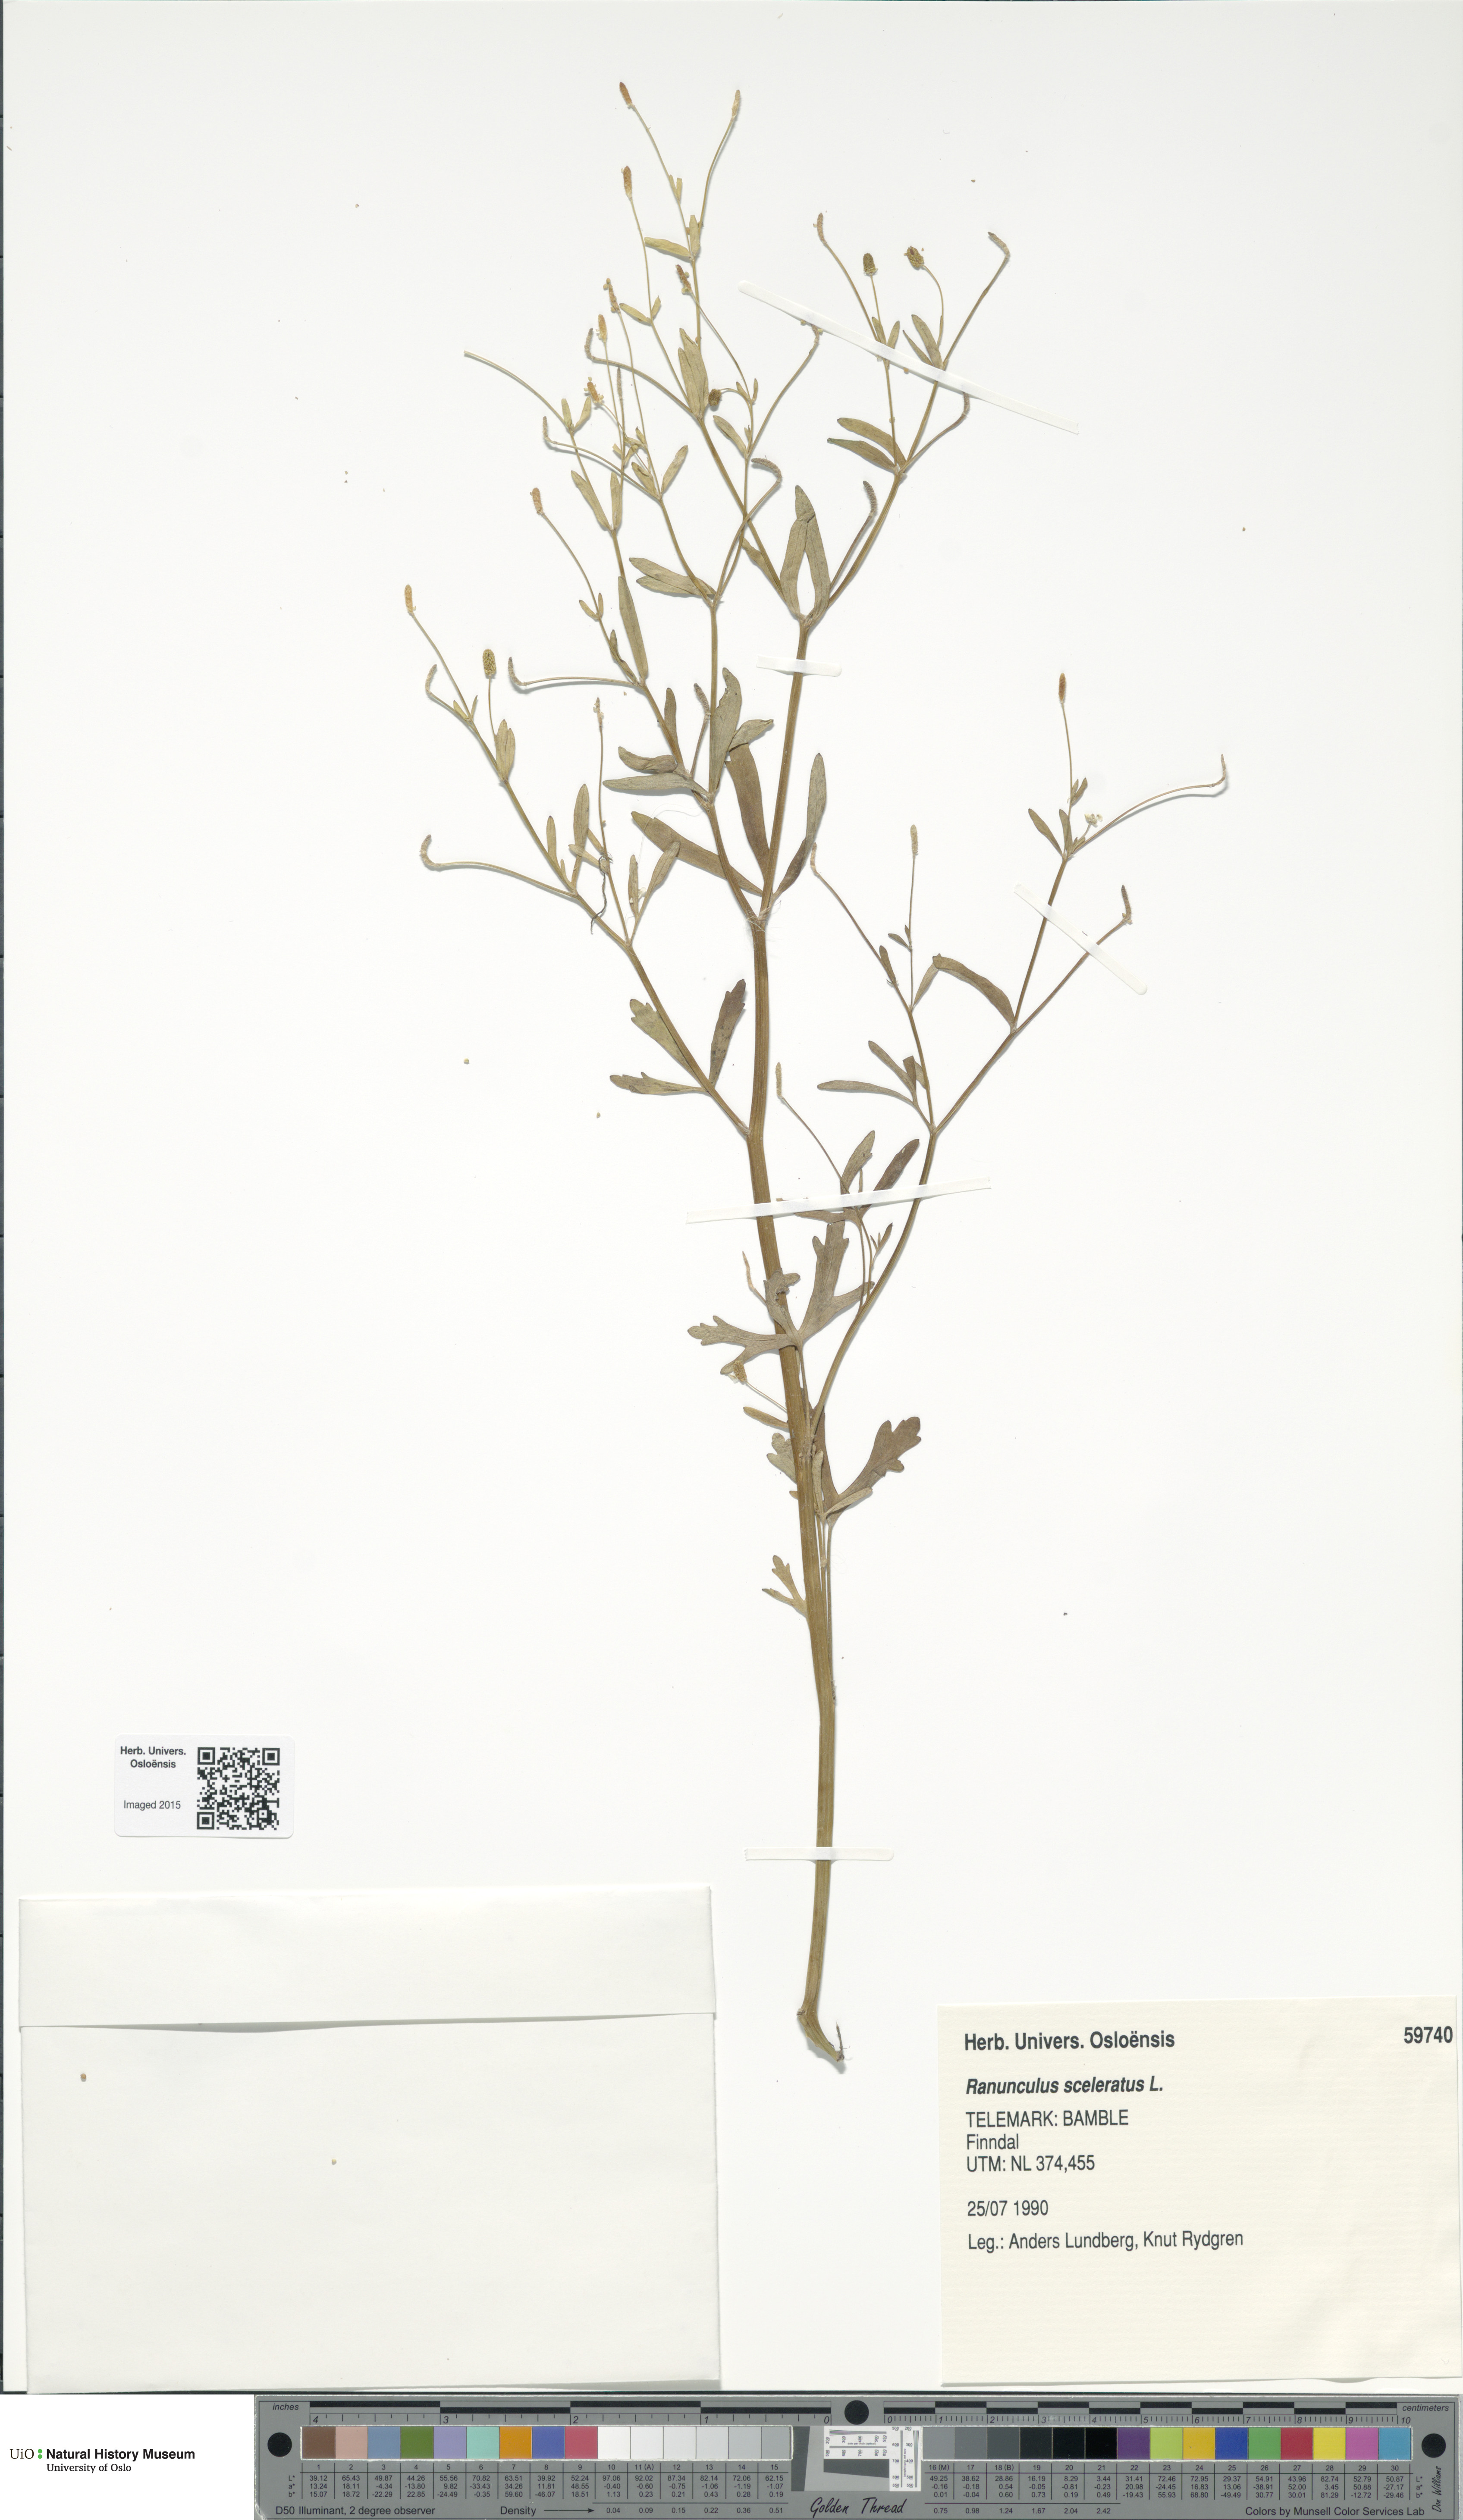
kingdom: Plantae
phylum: Tracheophyta
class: Magnoliopsida
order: Ranunculales
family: Ranunculaceae
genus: Ranunculus
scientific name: Ranunculus sceleratus
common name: Celery-leaved buttercup
